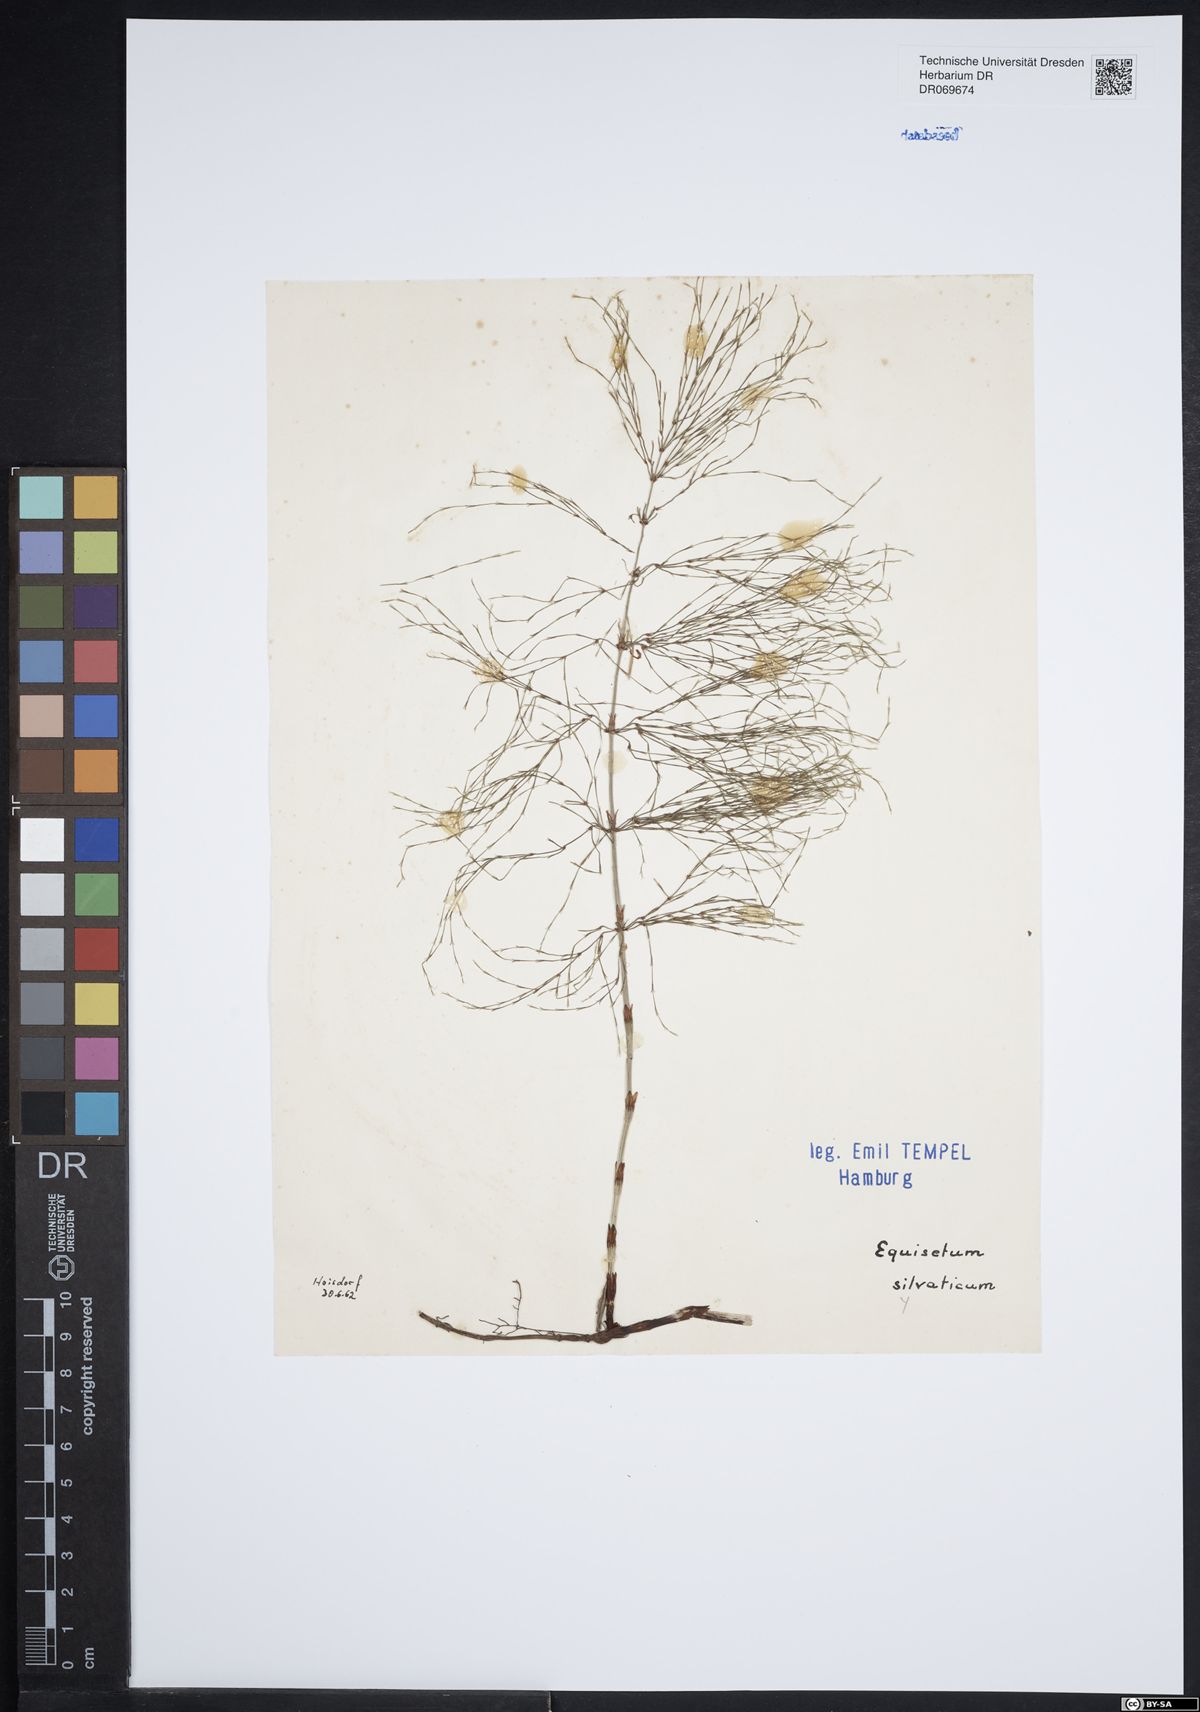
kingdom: Plantae
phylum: Tracheophyta
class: Polypodiopsida
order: Equisetales
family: Equisetaceae
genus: Equisetum
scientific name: Equisetum sylvaticum
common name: Wood horsetail
